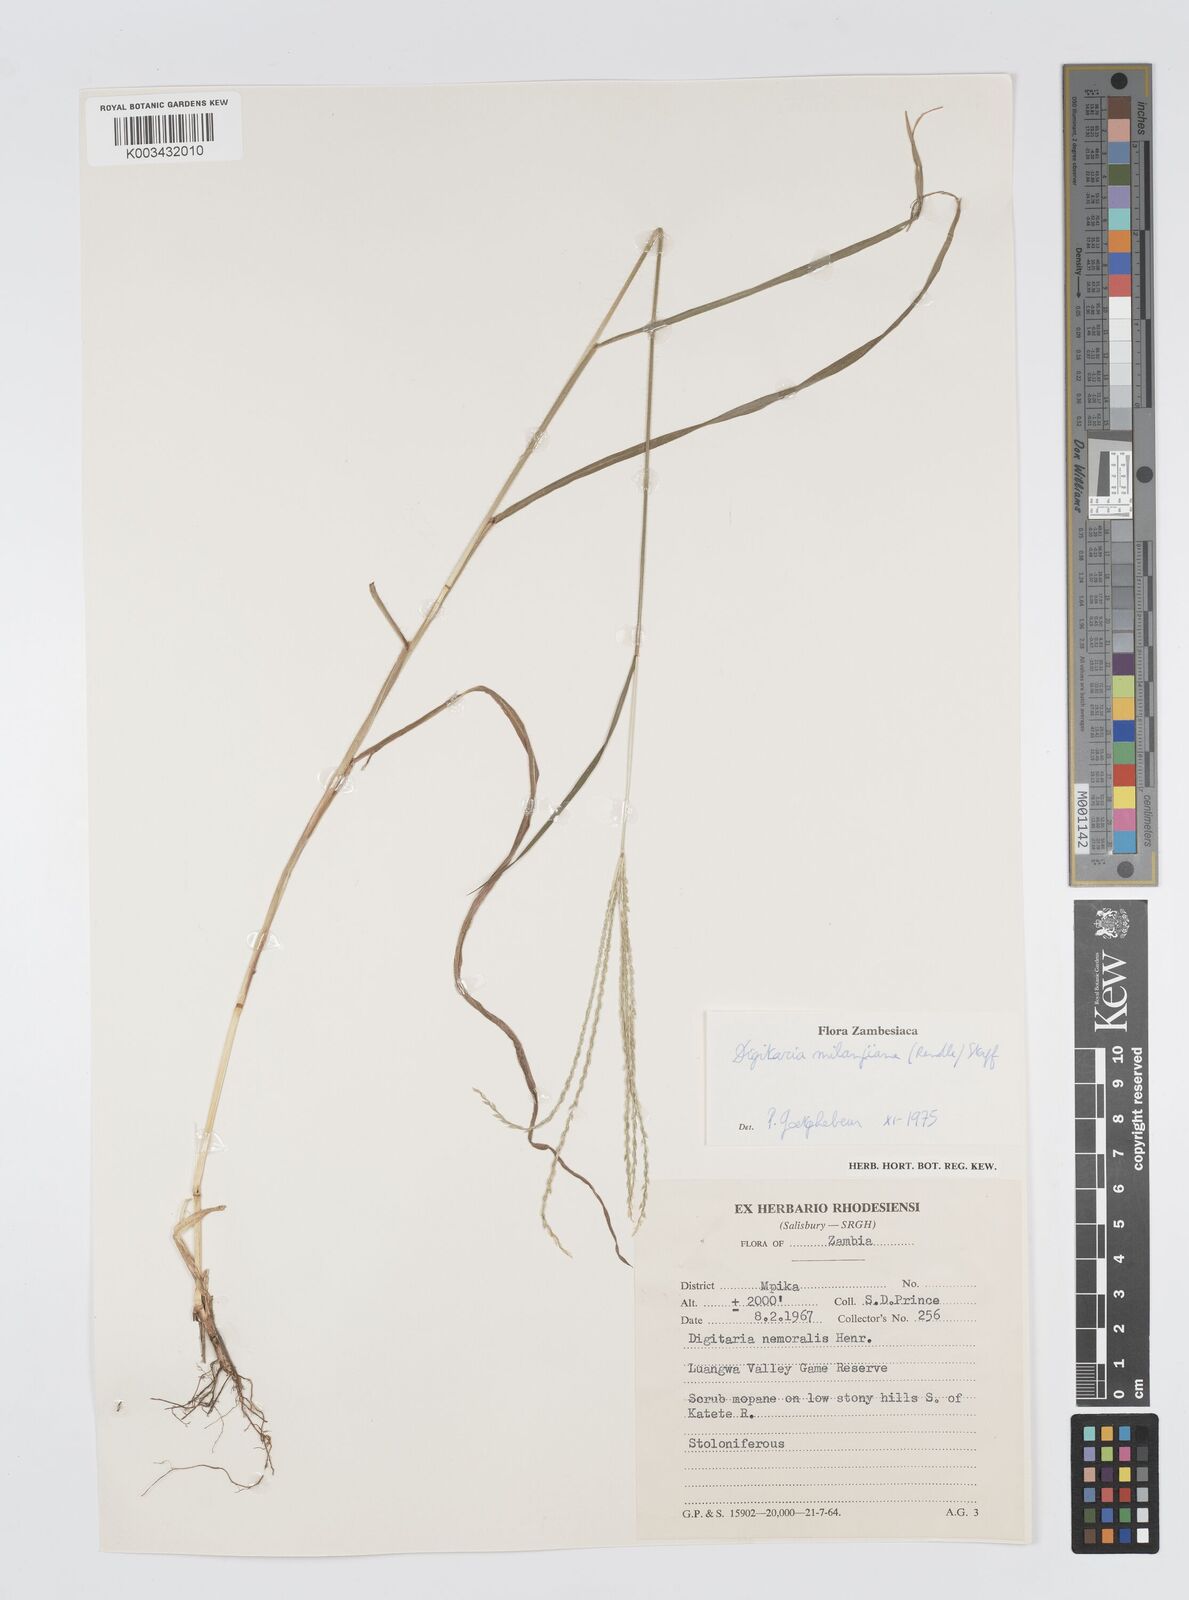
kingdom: Plantae
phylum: Tracheophyta
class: Liliopsida
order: Poales
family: Poaceae
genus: Digitaria
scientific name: Digitaria milanjiana
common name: Madagascar crabgrass
